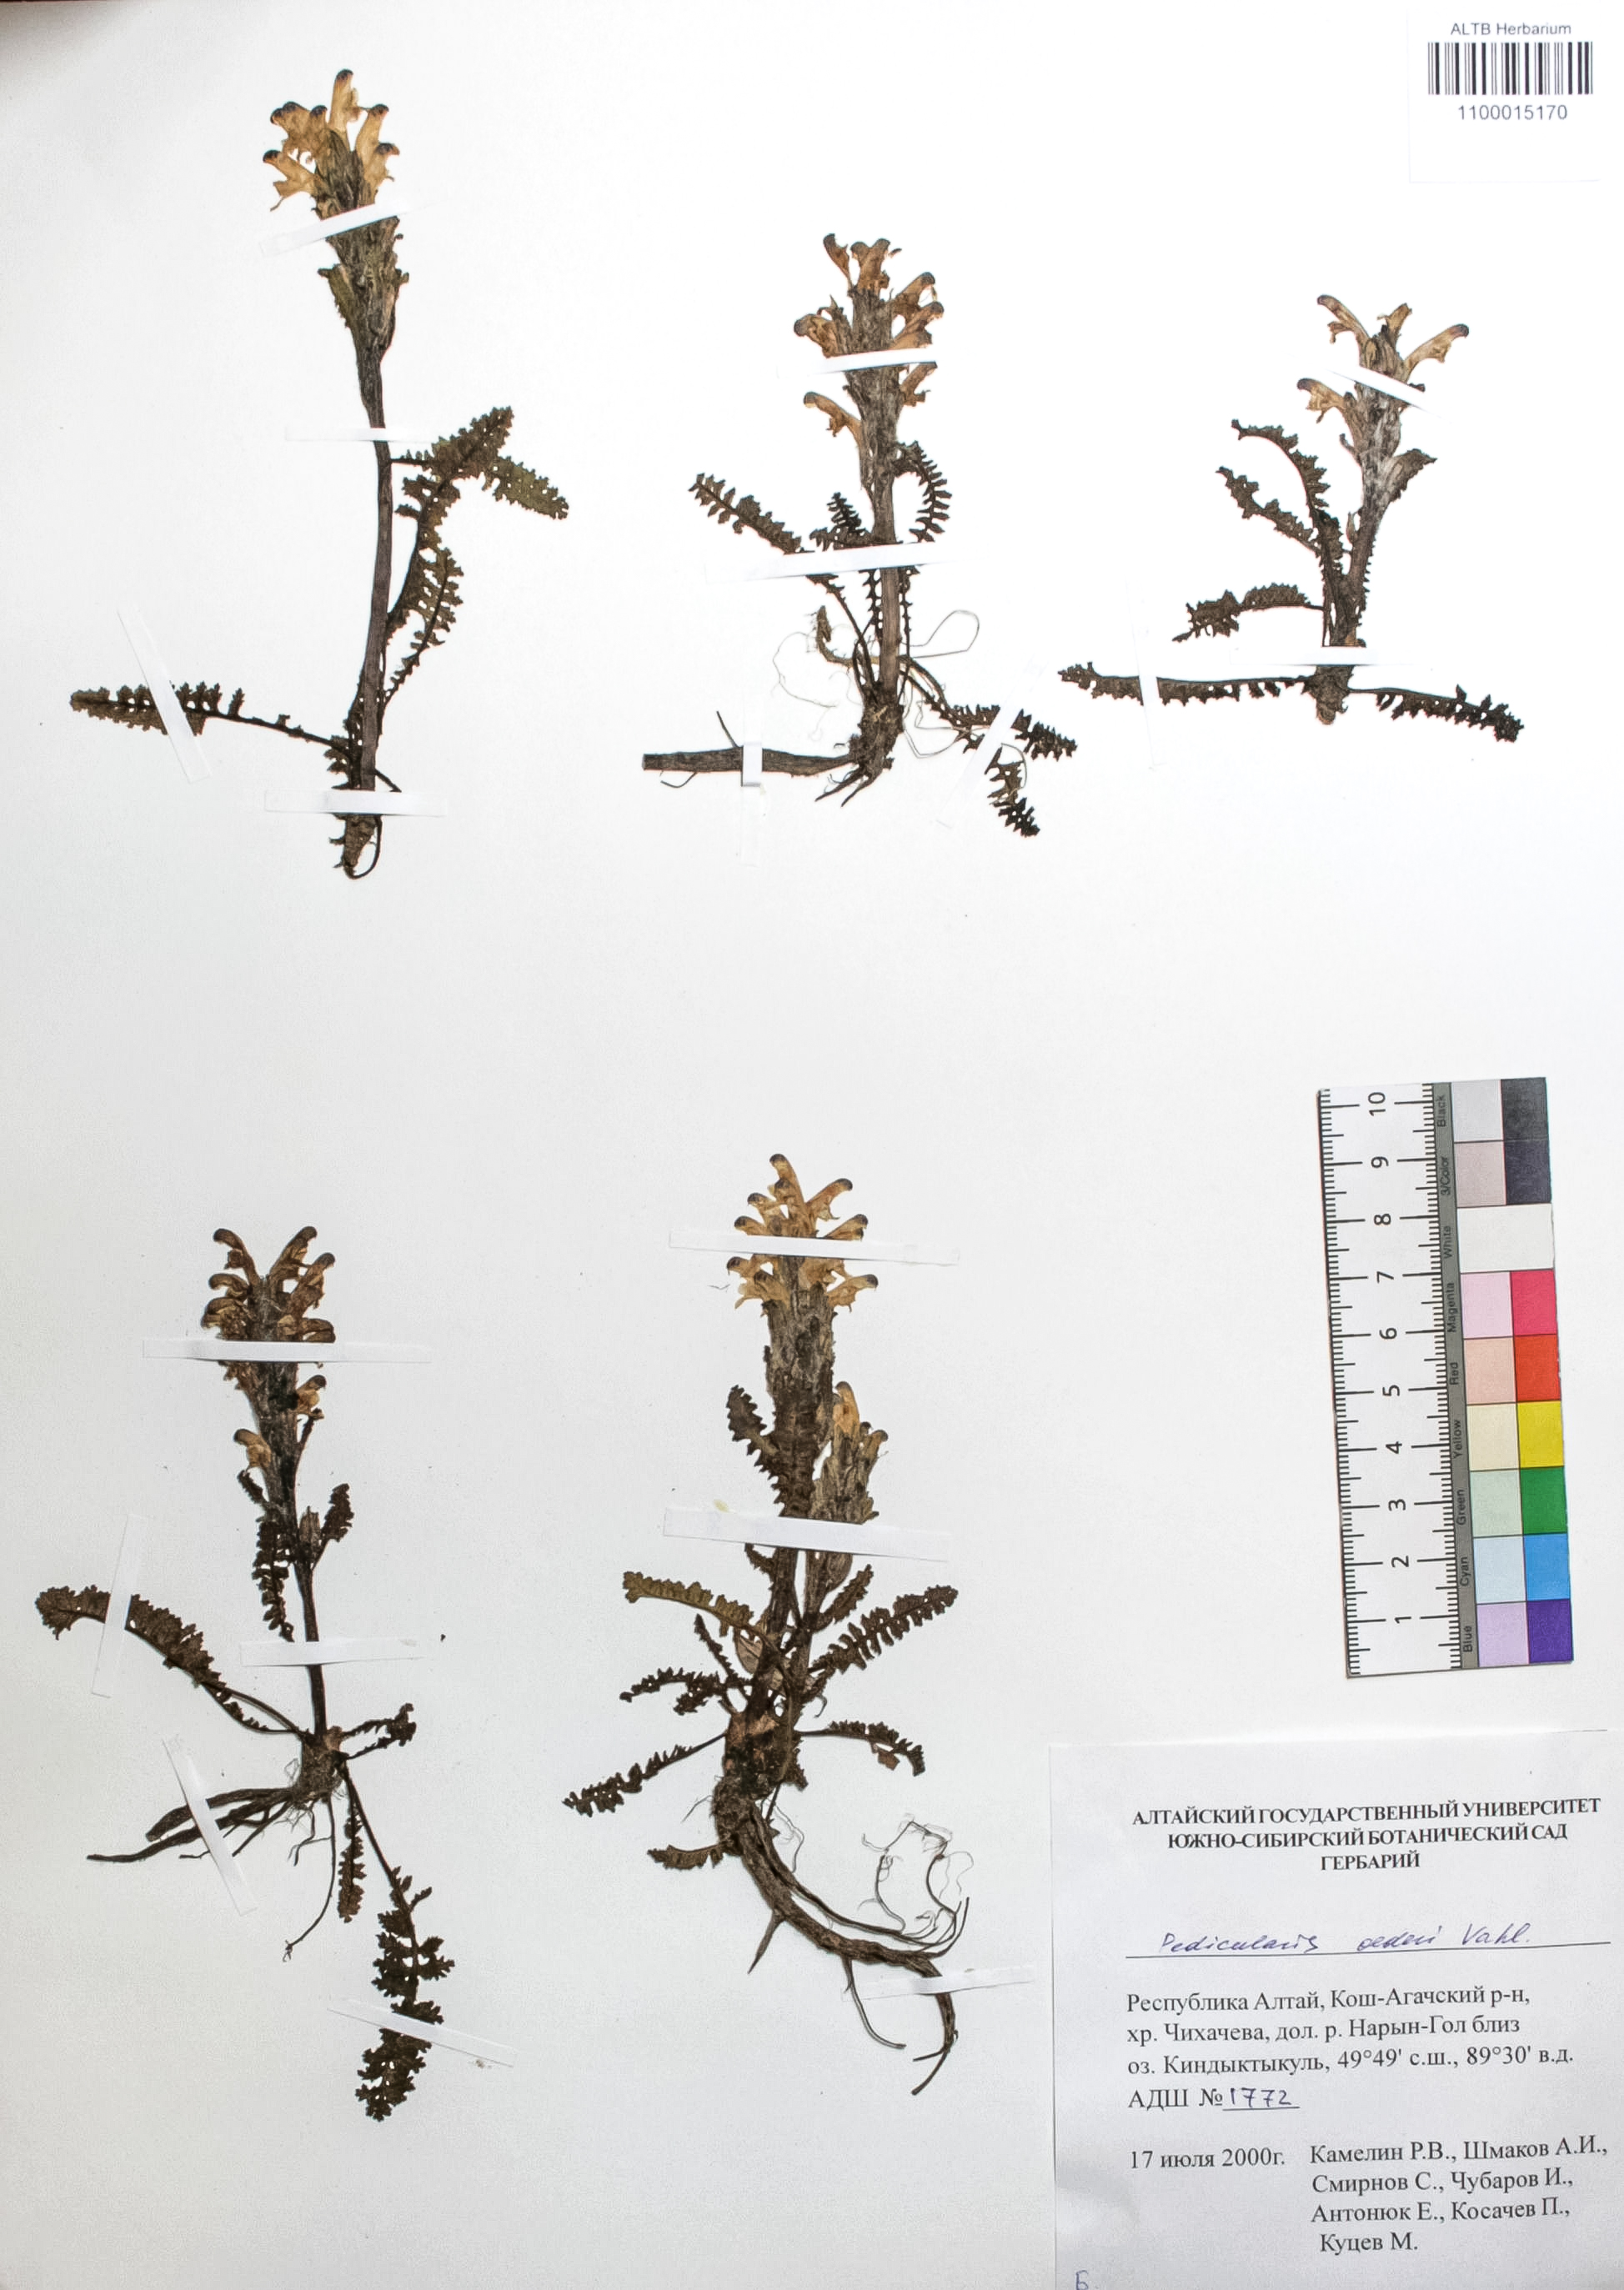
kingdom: Plantae
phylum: Tracheophyta
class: Magnoliopsida
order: Caryophyllales
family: Caryophyllaceae
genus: Silene
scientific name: Silene graminifolia
